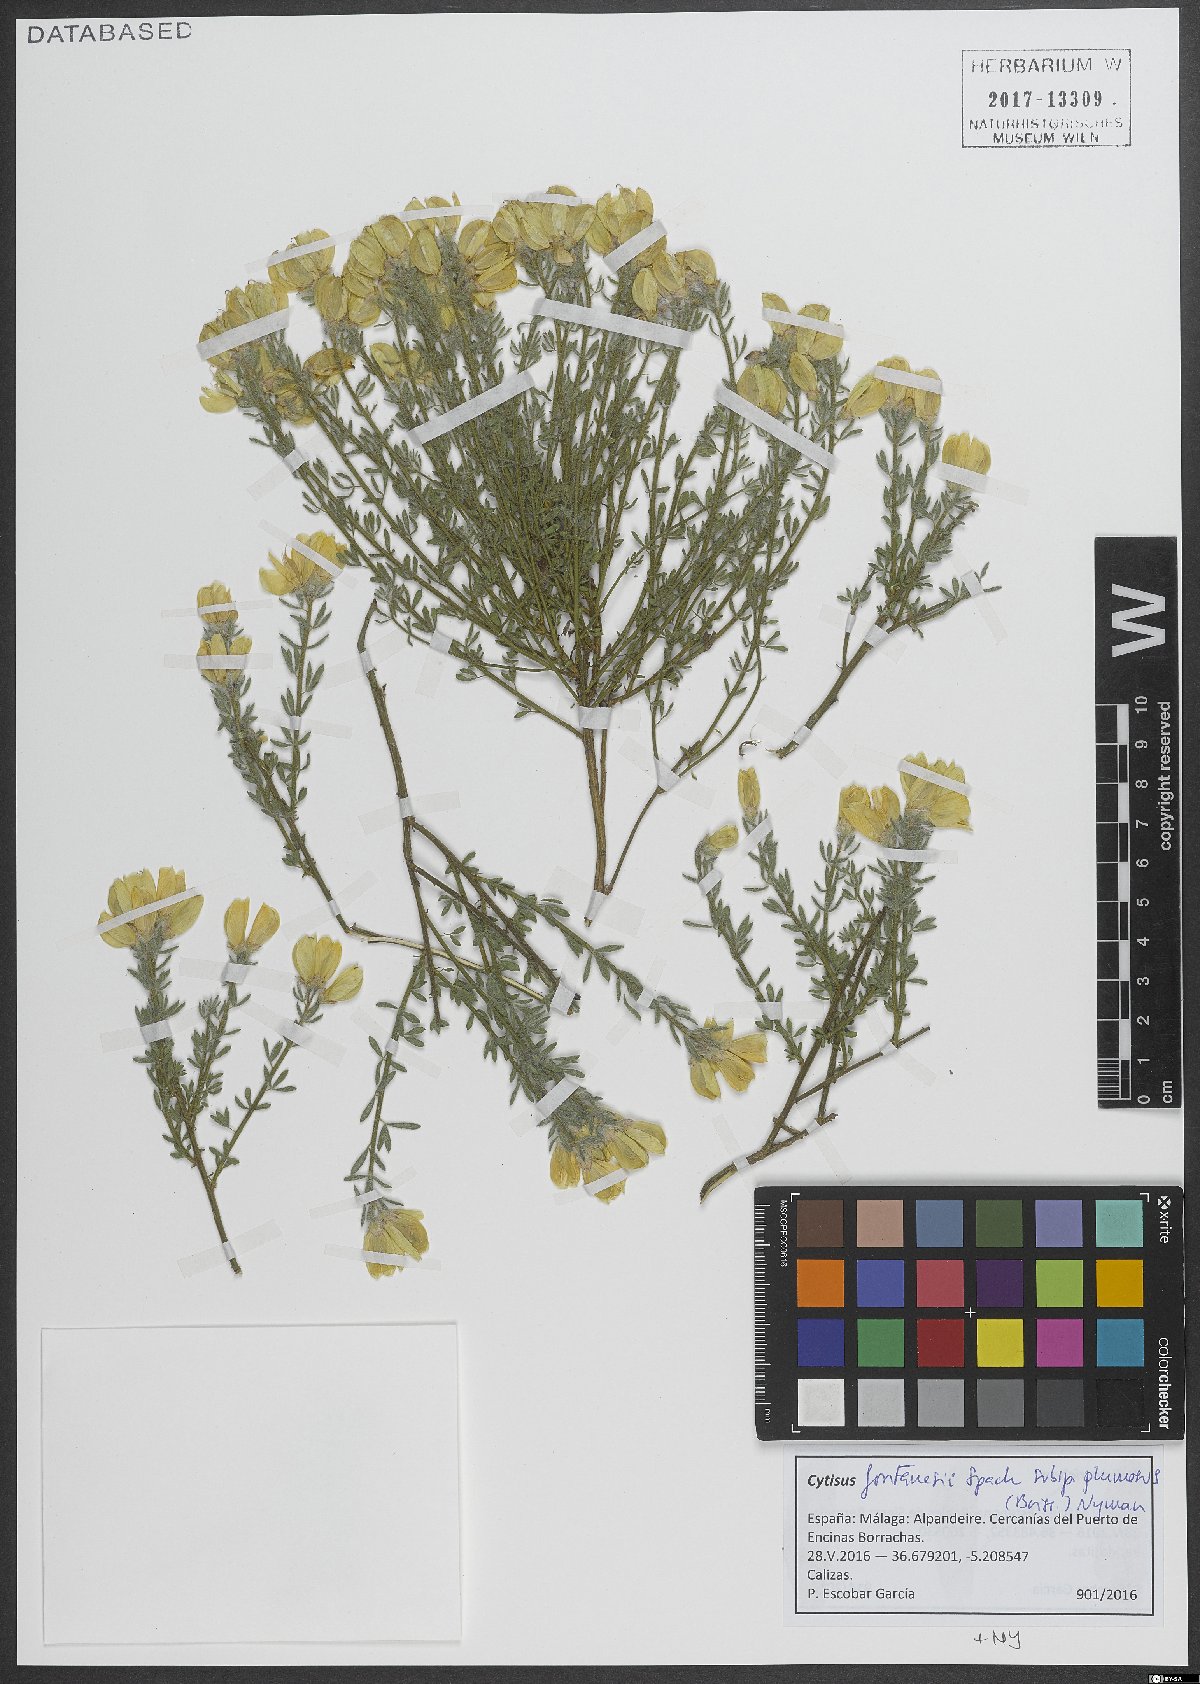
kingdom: Plantae
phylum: Tracheophyta
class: Magnoliopsida
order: Fabales
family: Fabaceae
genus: Cytisus
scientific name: Cytisus fontanesii
